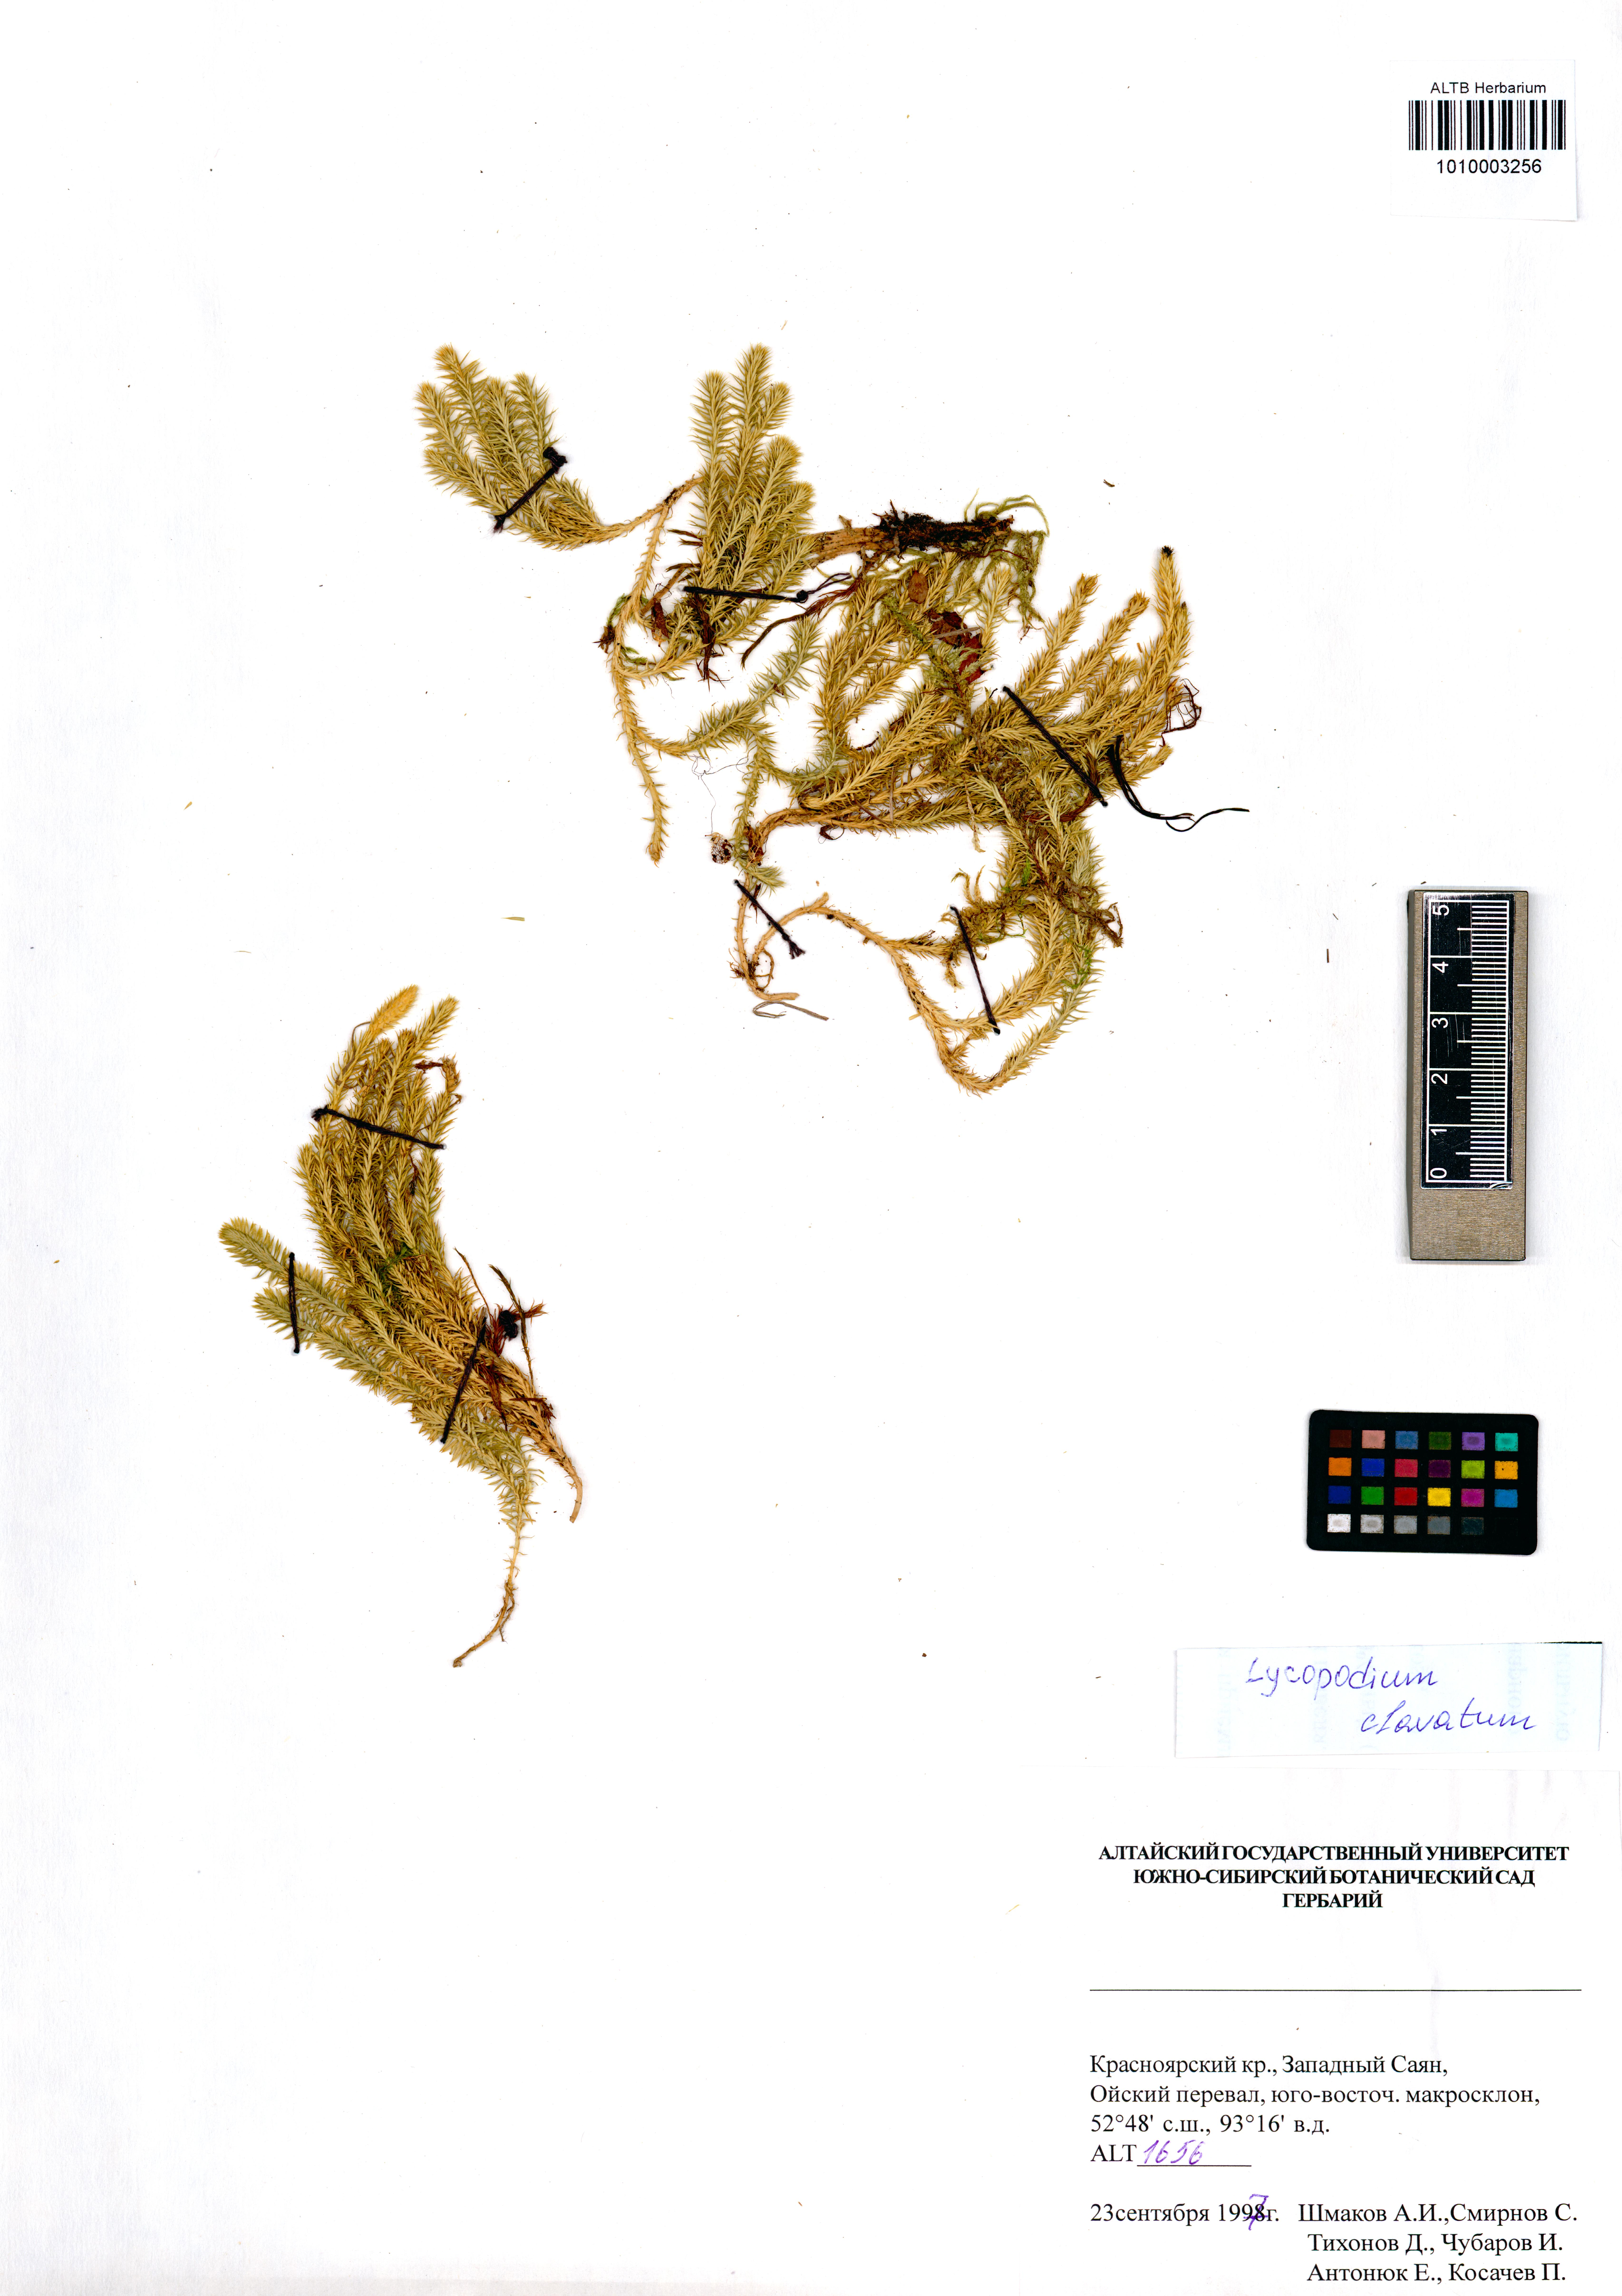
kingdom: Plantae
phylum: Tracheophyta
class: Lycopodiopsida
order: Lycopodiales
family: Lycopodiaceae
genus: Lycopodium
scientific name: Lycopodium clavatum
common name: Stag's-horn clubmoss
